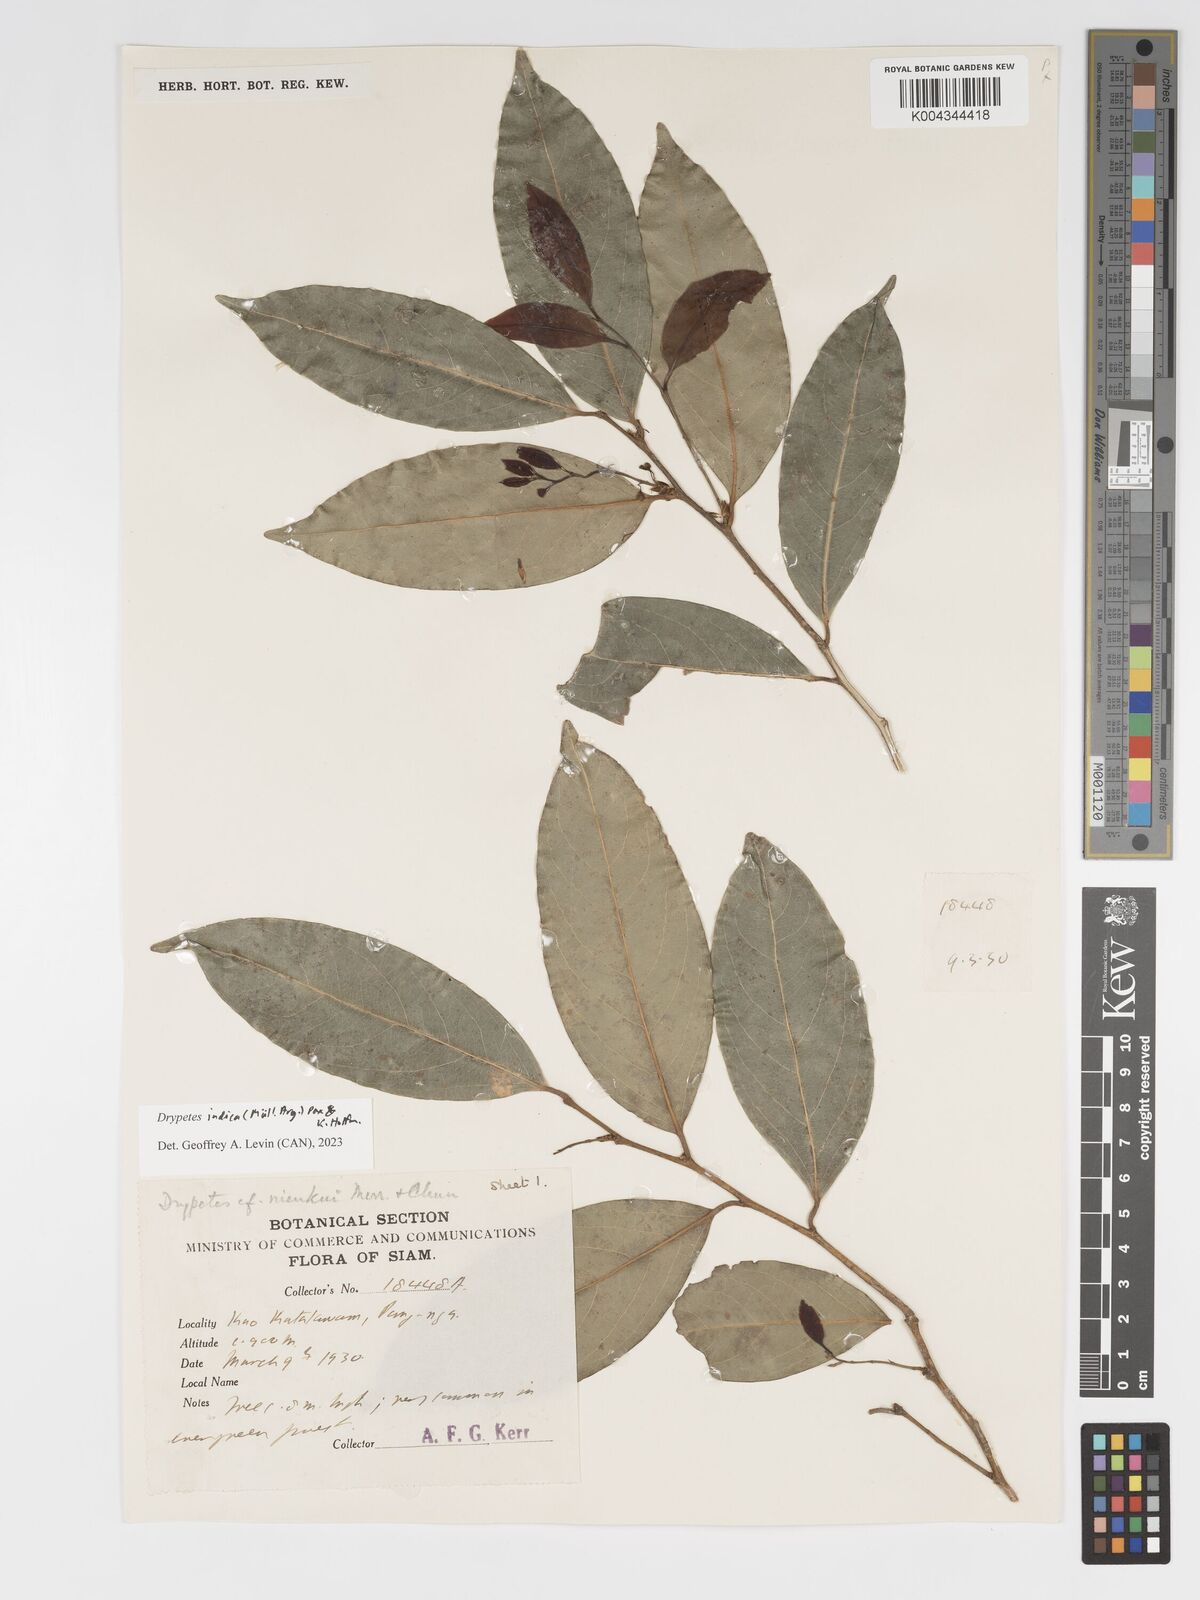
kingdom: Plantae
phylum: Tracheophyta
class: Magnoliopsida
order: Malpighiales
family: Putranjivaceae
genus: Drypetes
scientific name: Drypetes indica
